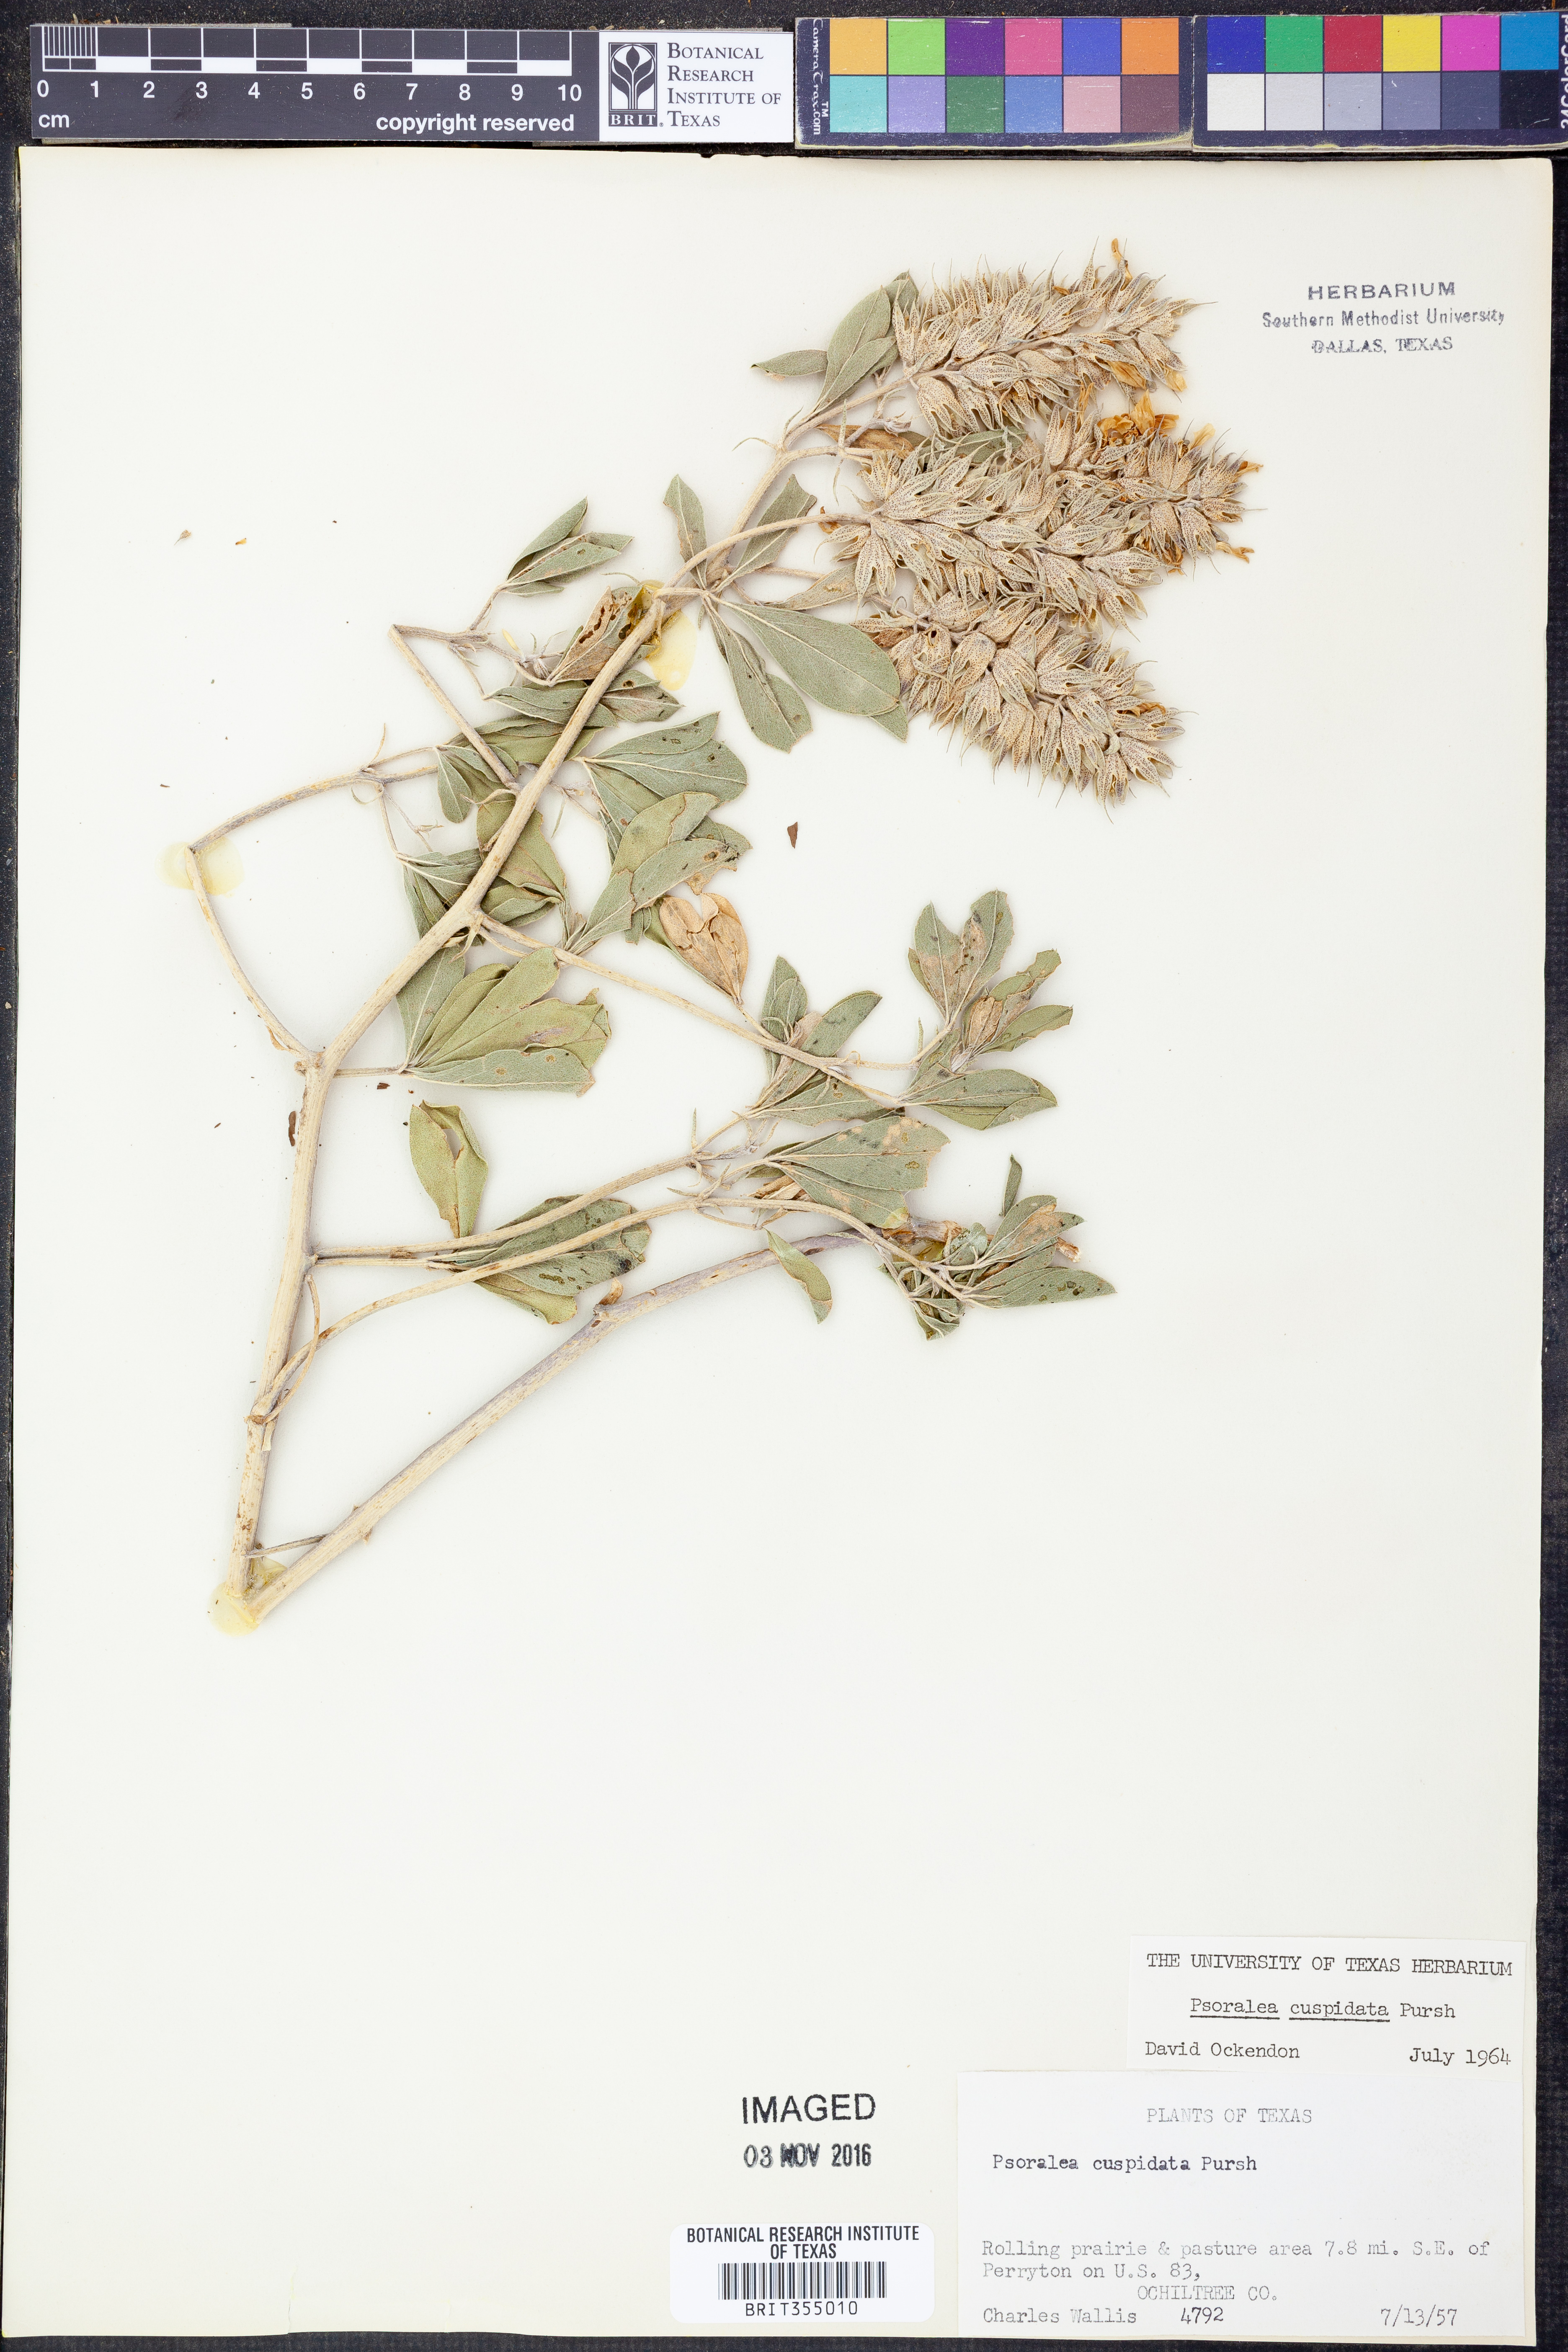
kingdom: Plantae
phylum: Tracheophyta
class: Magnoliopsida
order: Fabales
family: Fabaceae
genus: Pediomelum
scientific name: Pediomelum cuspidatum
